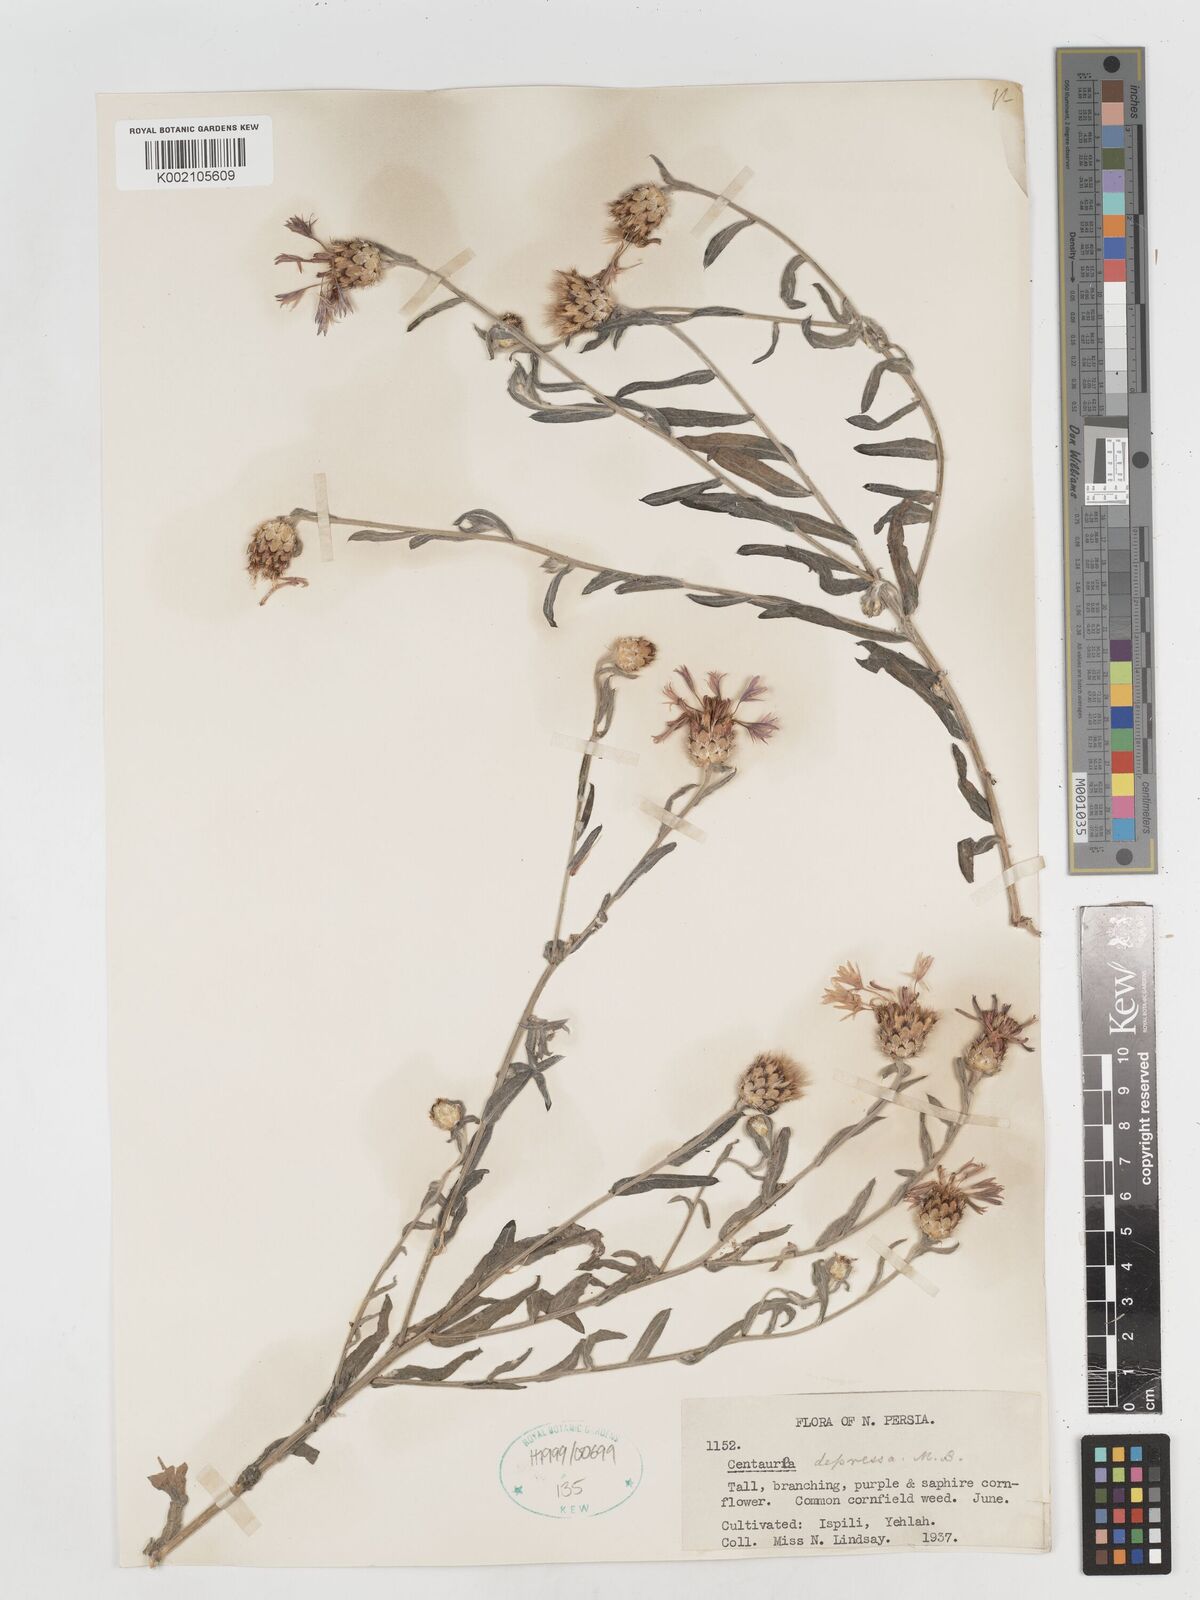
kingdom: Plantae
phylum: Tracheophyta
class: Magnoliopsida
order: Asterales
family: Asteraceae
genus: Centaurea
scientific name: Centaurea depressa
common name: Iranian knapweed
